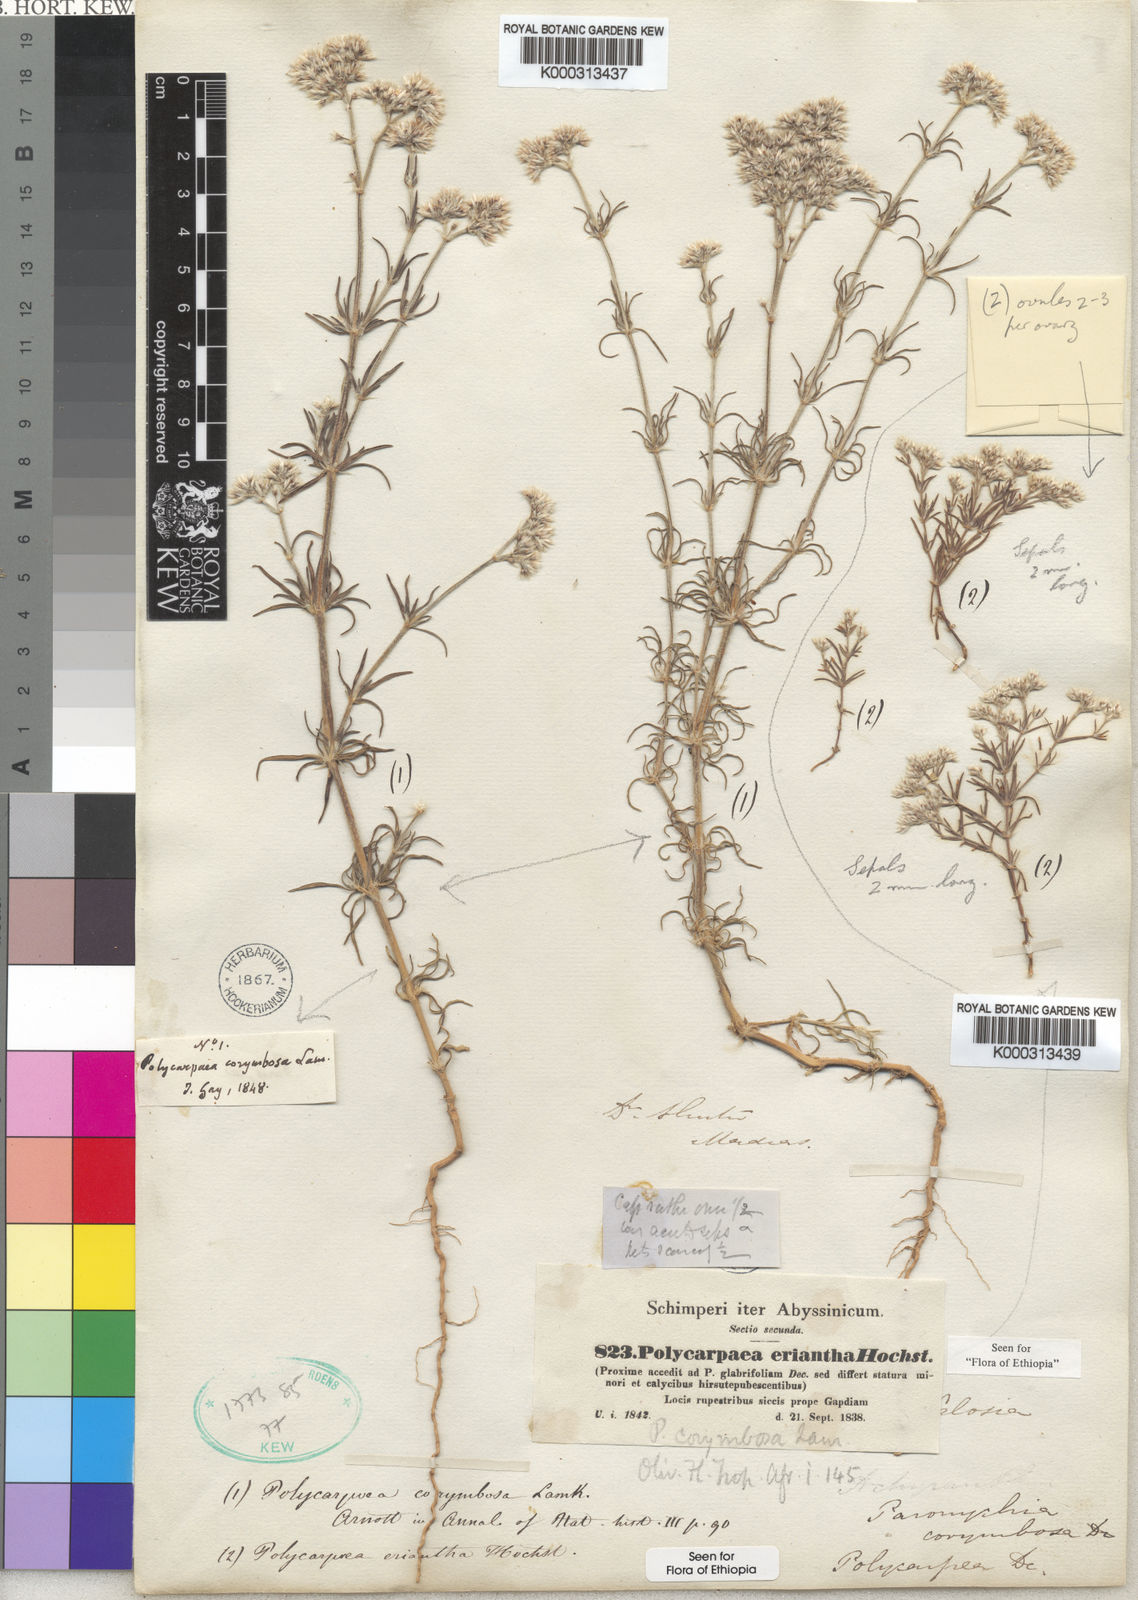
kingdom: Plantae
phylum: Tracheophyta
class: Magnoliopsida
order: Caryophyllales
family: Caryophyllaceae
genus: Polycarpaea
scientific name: Polycarpaea corymbosa
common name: Oldman's cap
